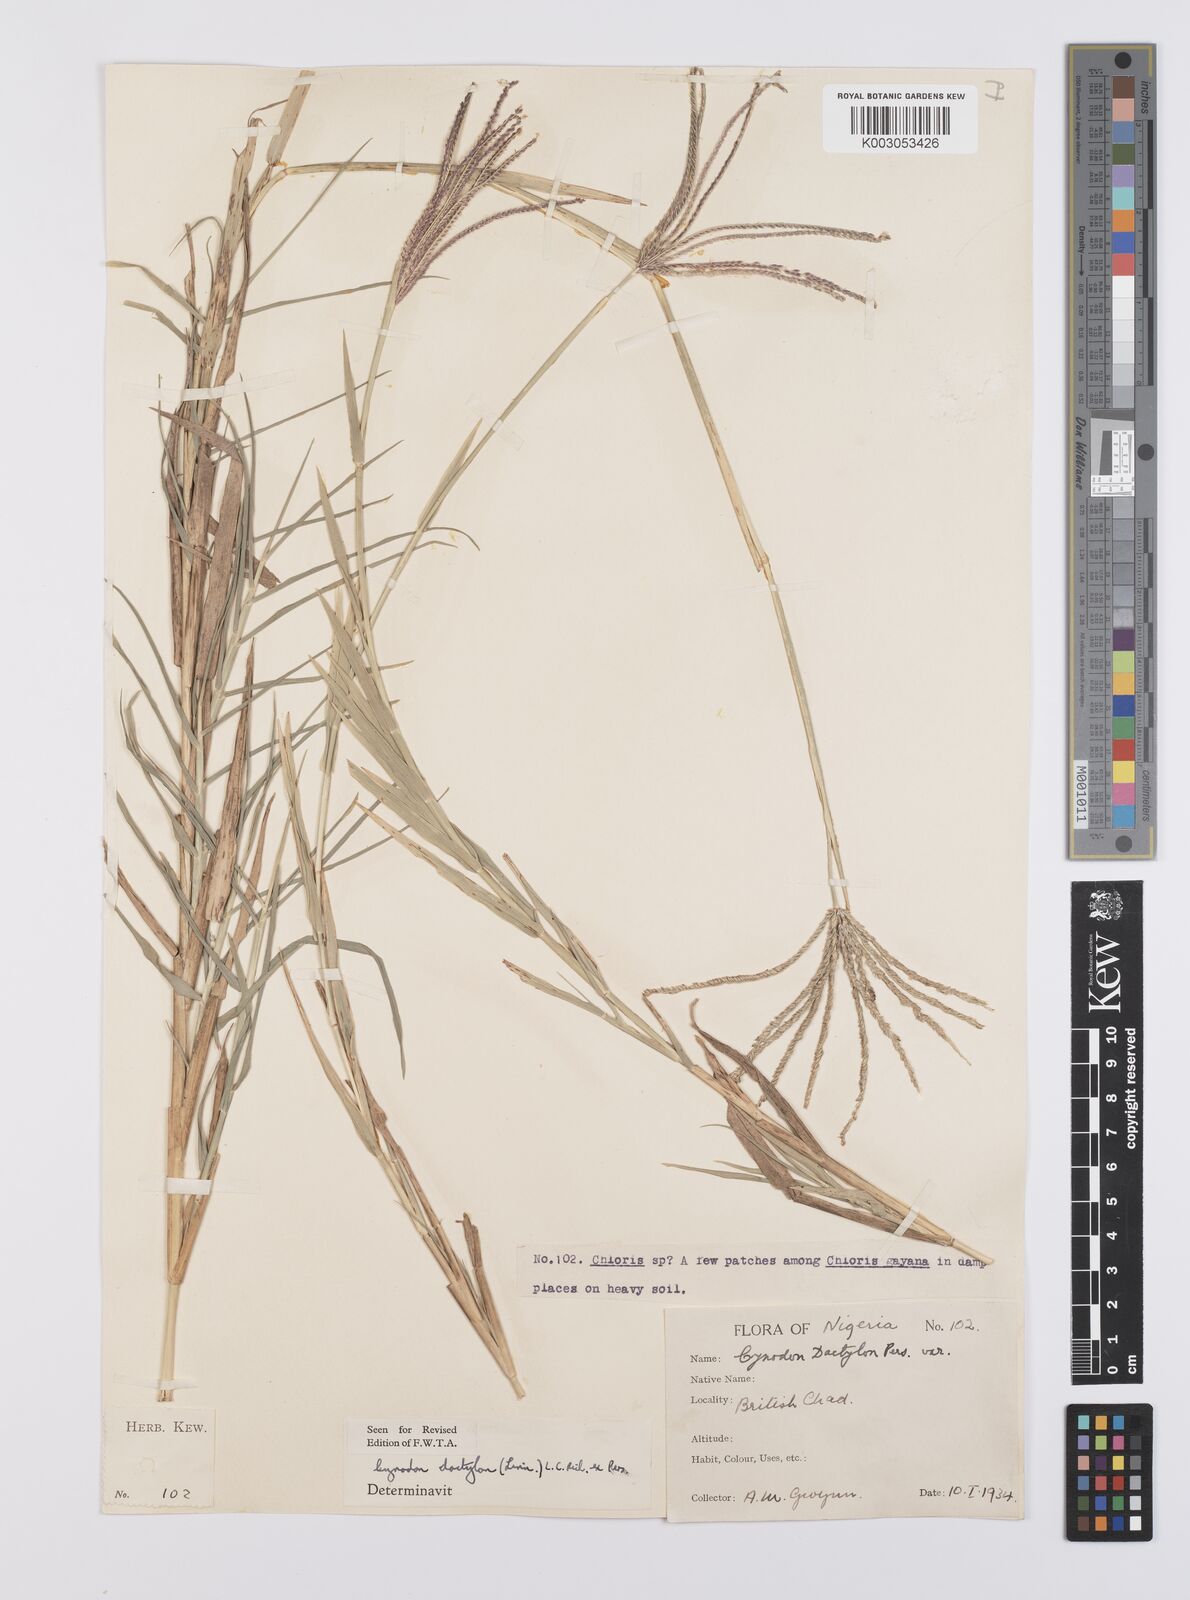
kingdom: Plantae
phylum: Tracheophyta
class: Liliopsida
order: Poales
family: Poaceae
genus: Cynodon
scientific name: Cynodon dactylon
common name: Bermuda grass
